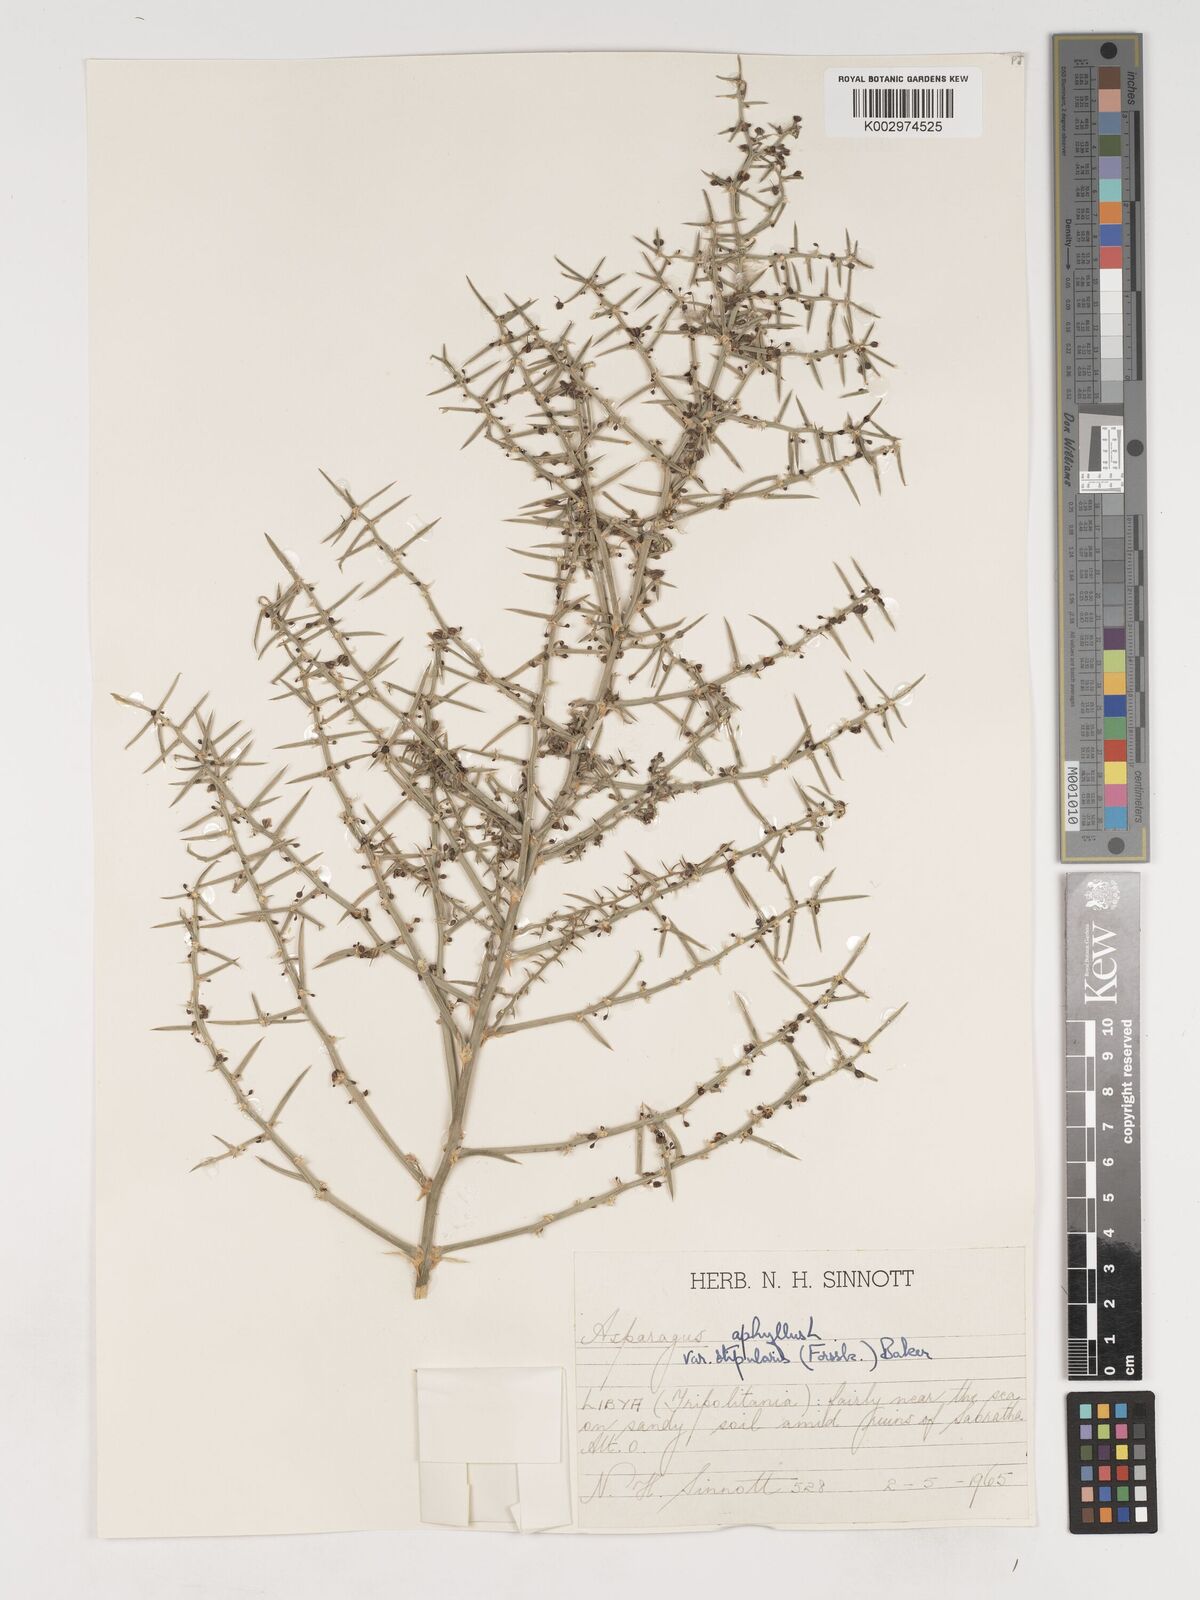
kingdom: Plantae
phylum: Tracheophyta
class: Liliopsida
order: Asparagales
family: Asparagaceae
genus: Asparagus
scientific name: Asparagus horridus
